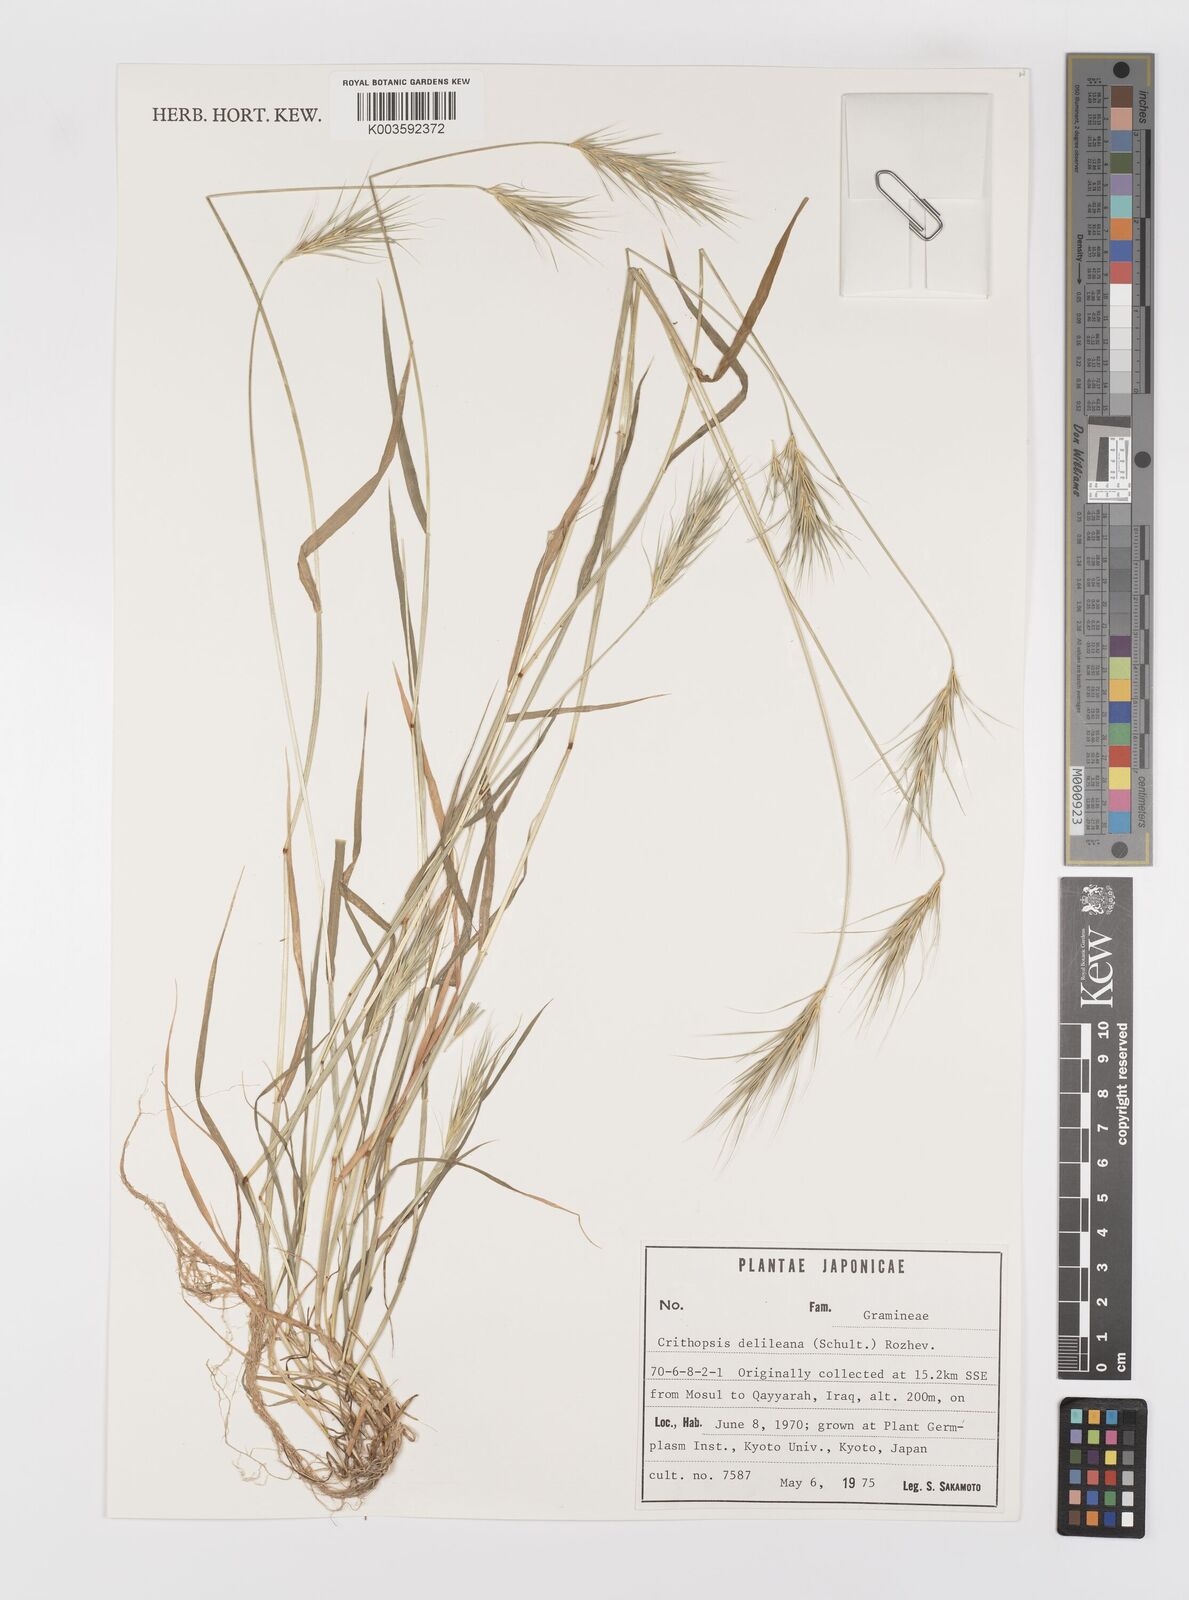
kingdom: Plantae
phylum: Tracheophyta
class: Liliopsida
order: Poales
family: Poaceae
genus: Crithopsis
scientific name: Crithopsis delileana
